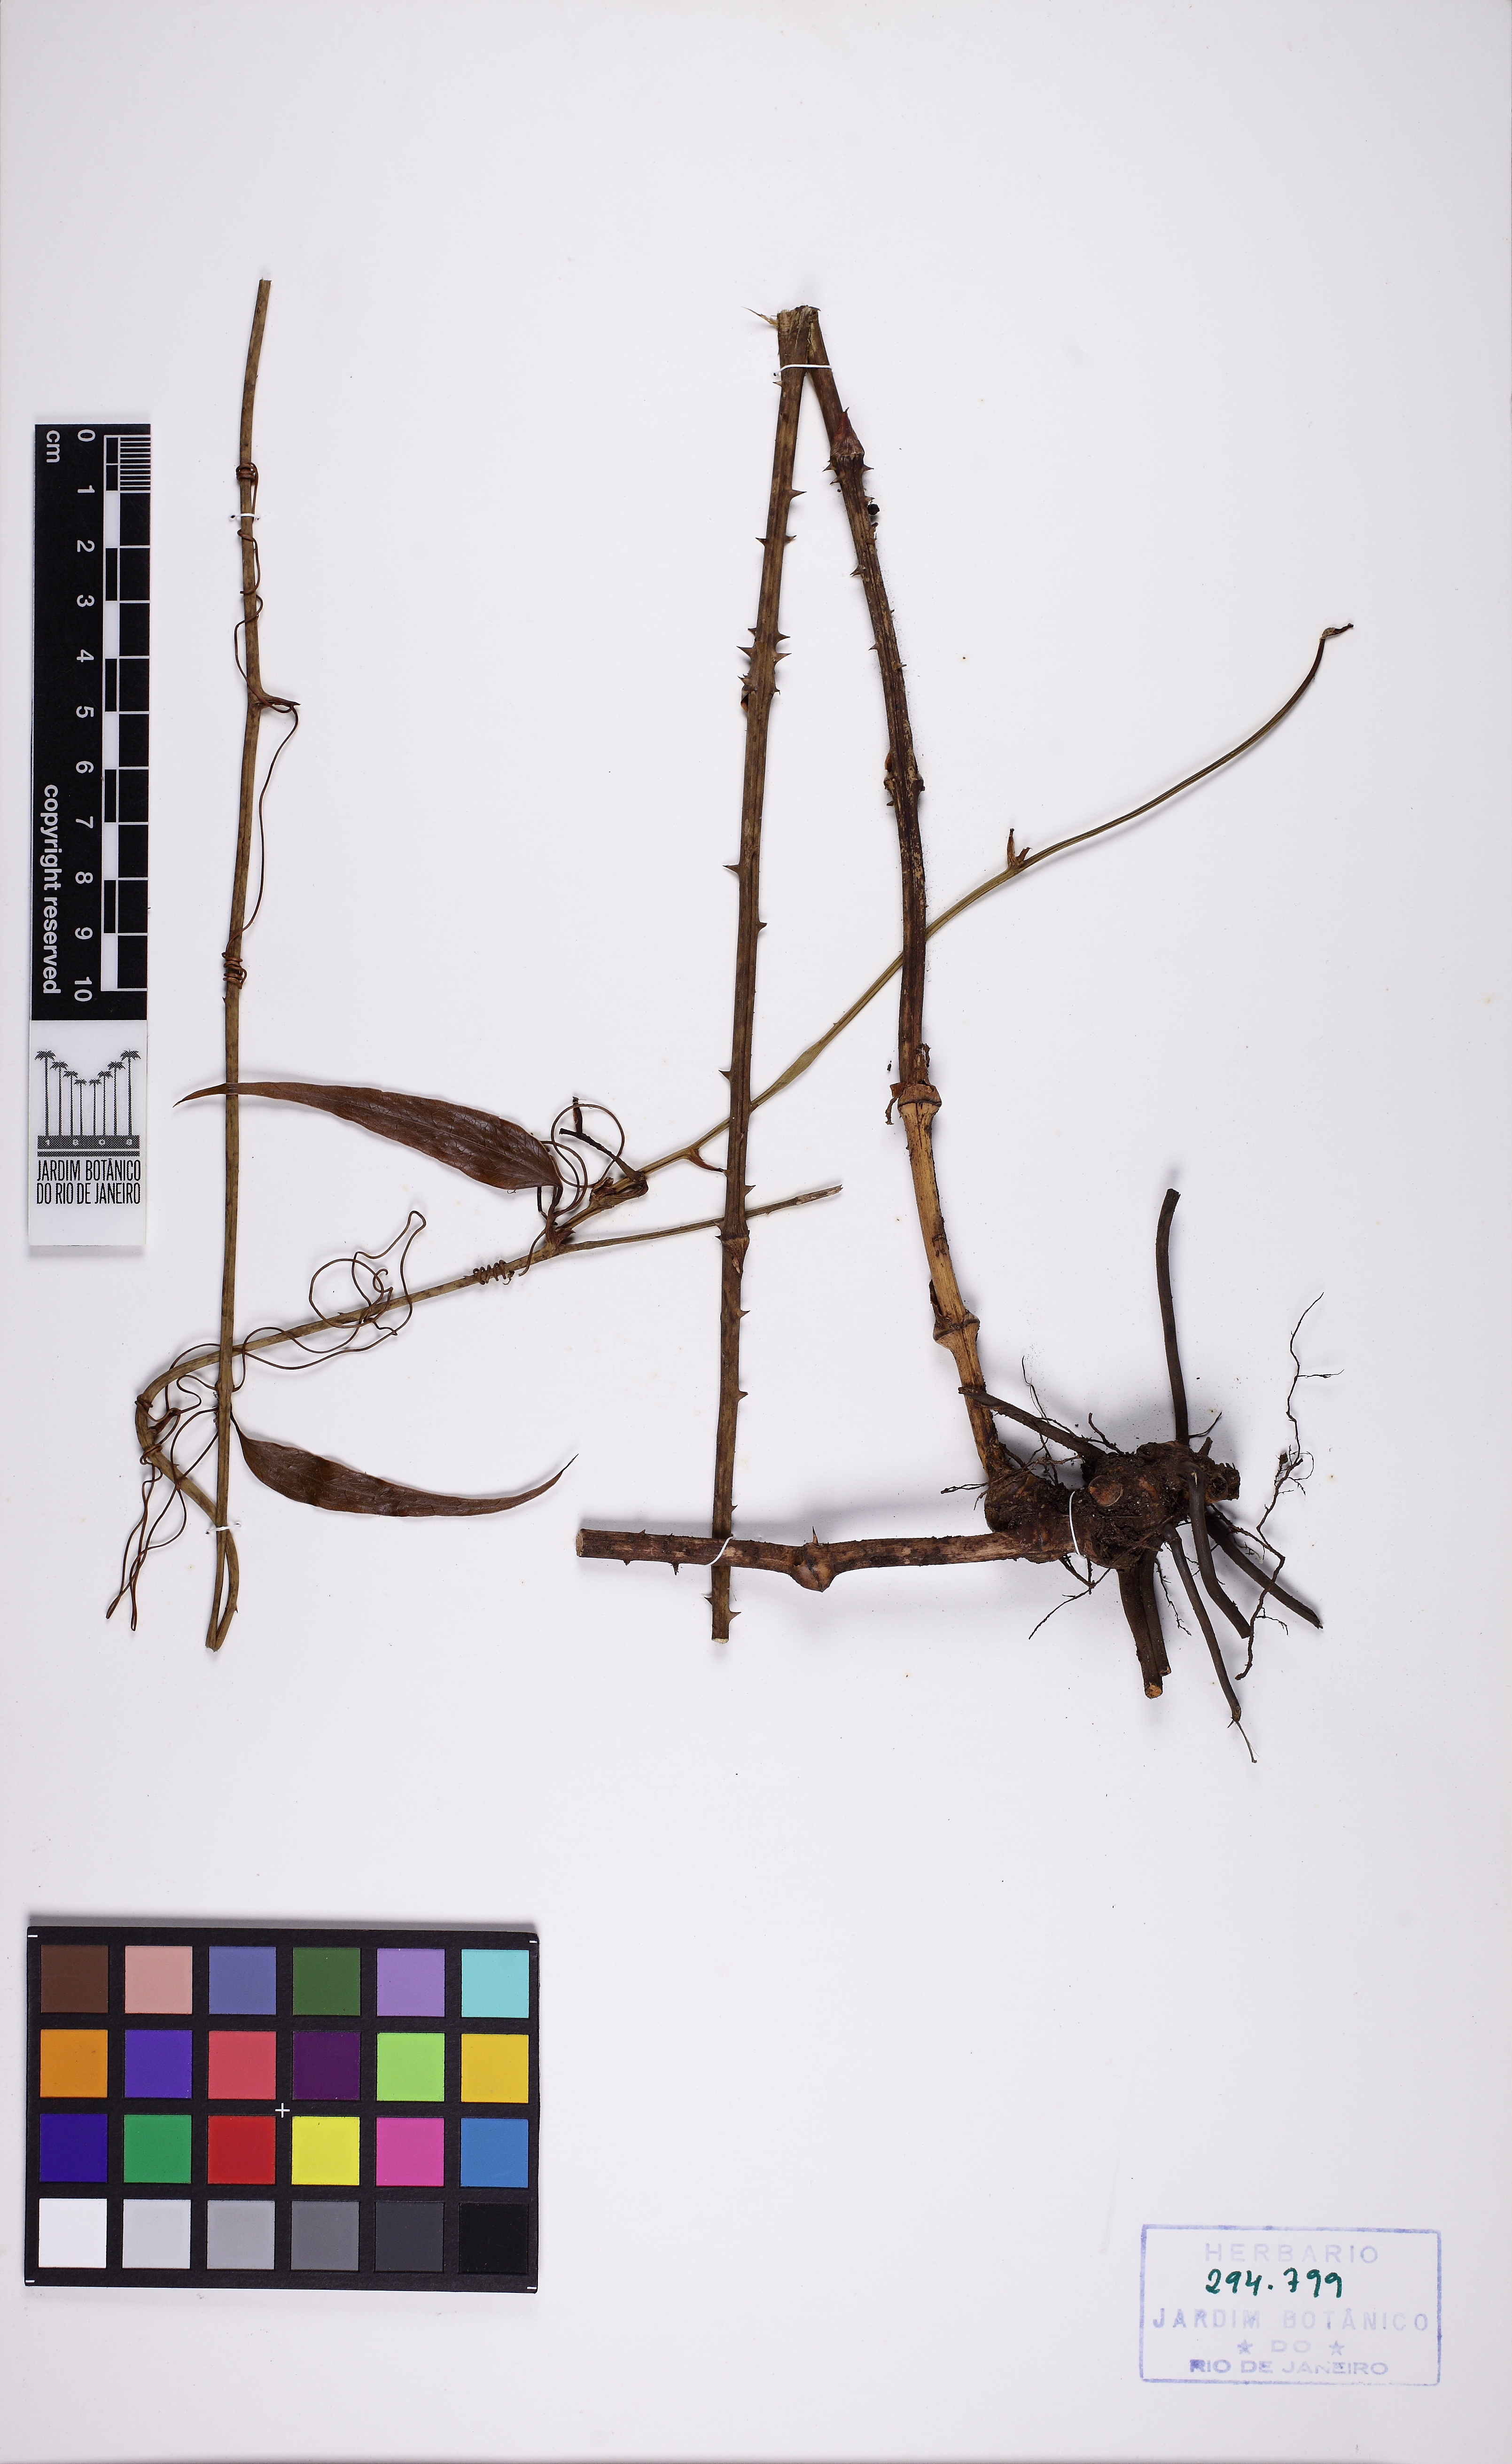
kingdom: Plantae
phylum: Tracheophyta
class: Liliopsida
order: Liliales
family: Smilacaceae
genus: Smilax
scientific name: Smilax domingensis
